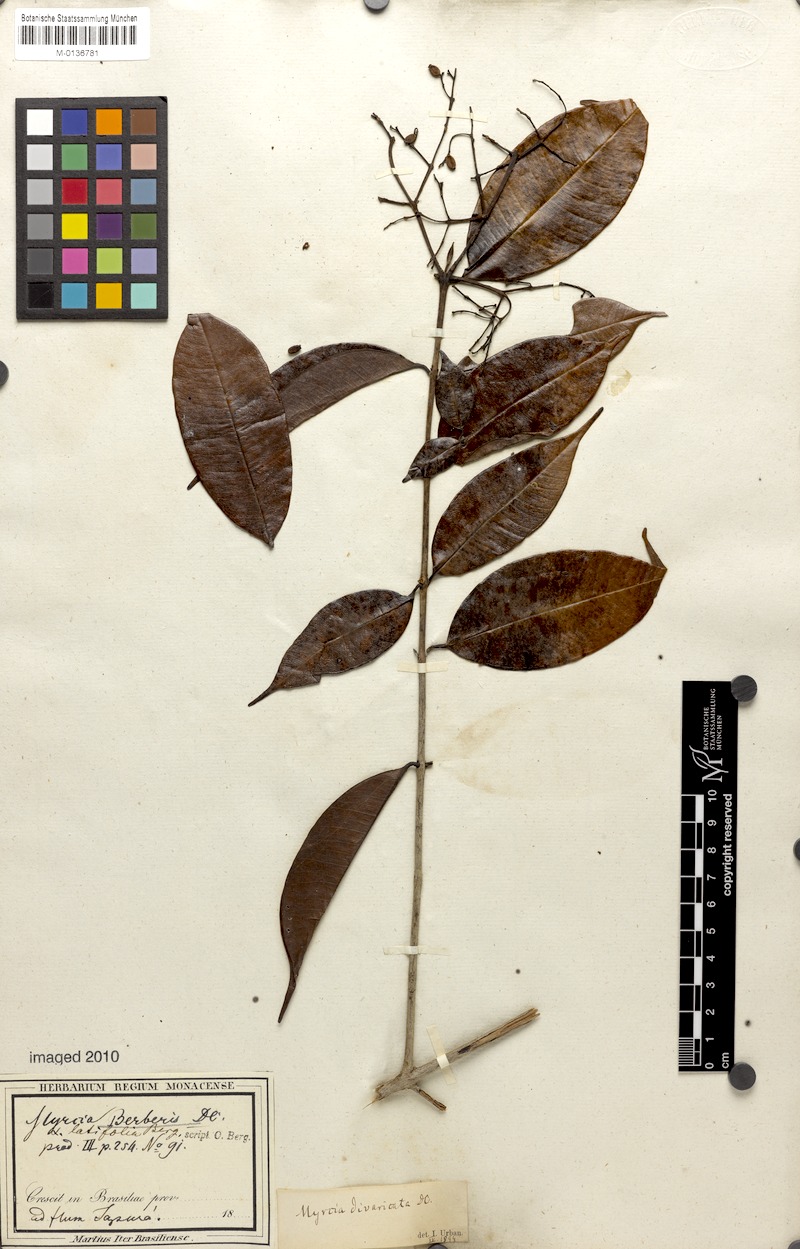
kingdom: Plantae
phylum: Tracheophyta
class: Magnoliopsida
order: Myrtales
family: Myrtaceae
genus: Myrcia
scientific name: Myrcia splendens
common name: Surinam cherry
